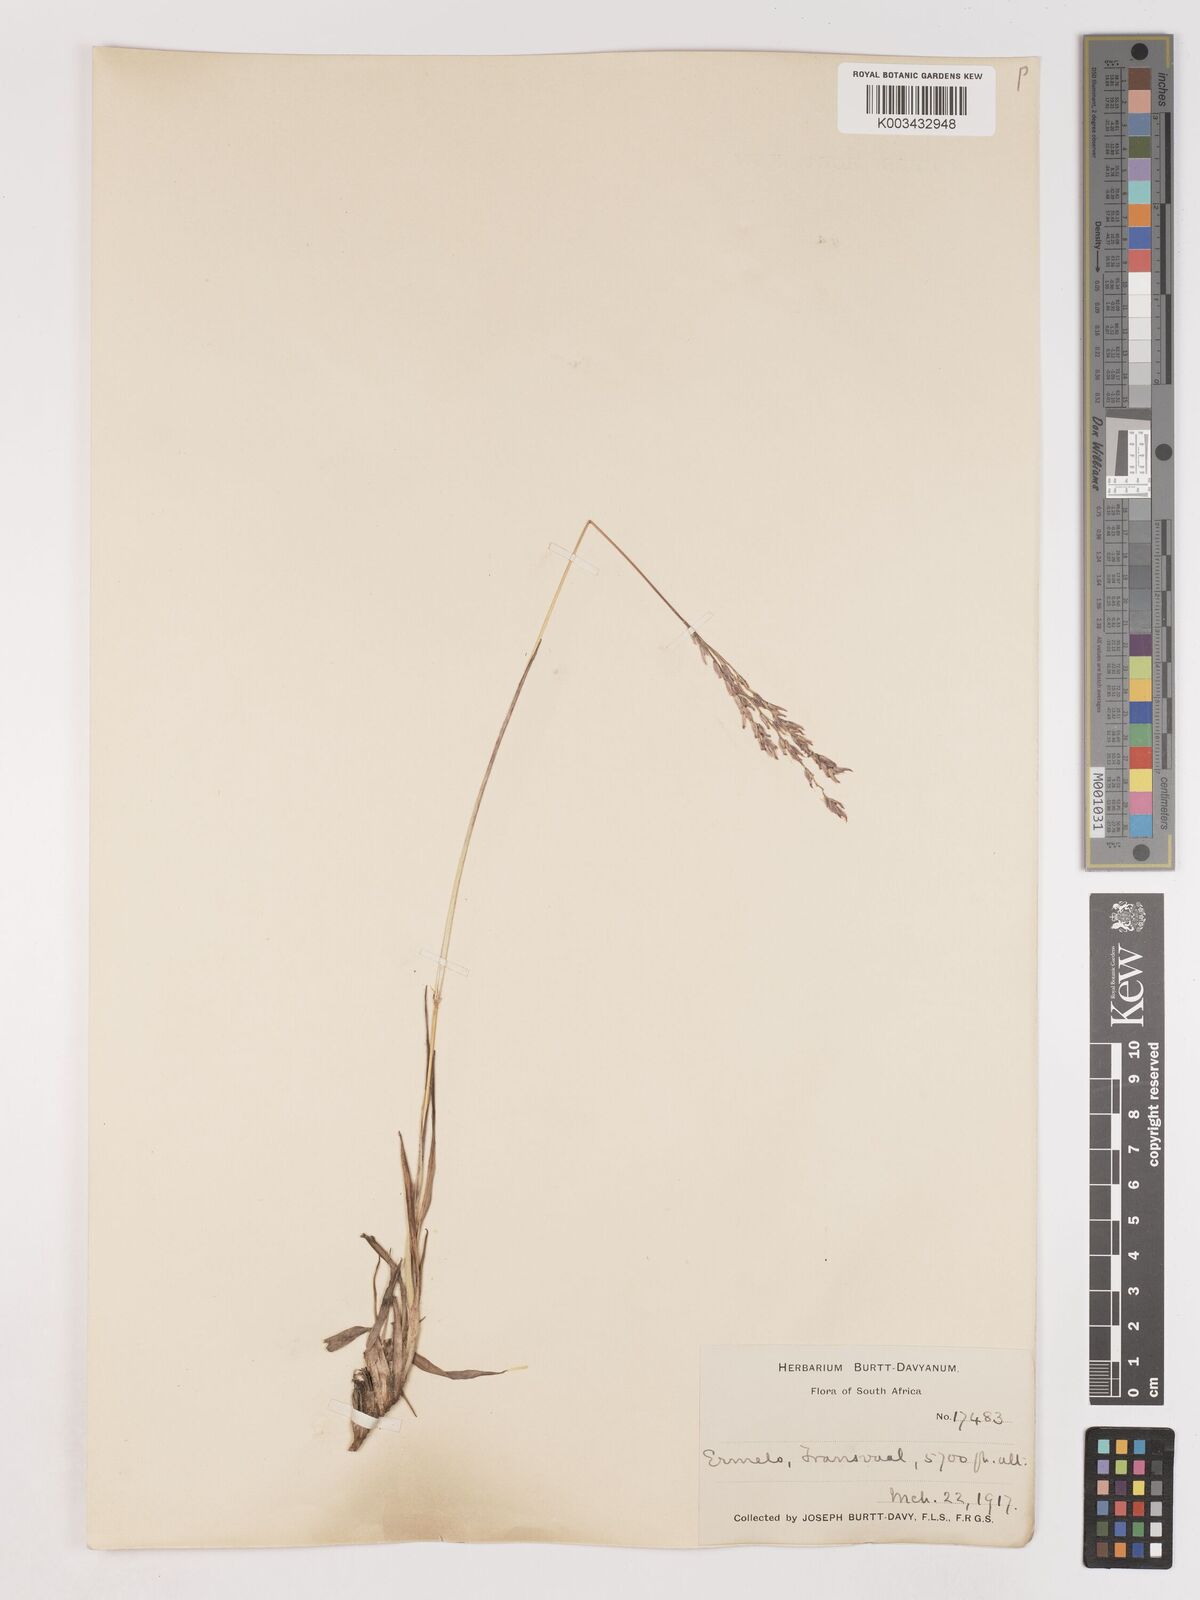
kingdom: Plantae
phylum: Tracheophyta
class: Liliopsida
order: Poales
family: Poaceae
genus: Digitaria
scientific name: Digitaria tricholaenoides
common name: Purple finger grass
